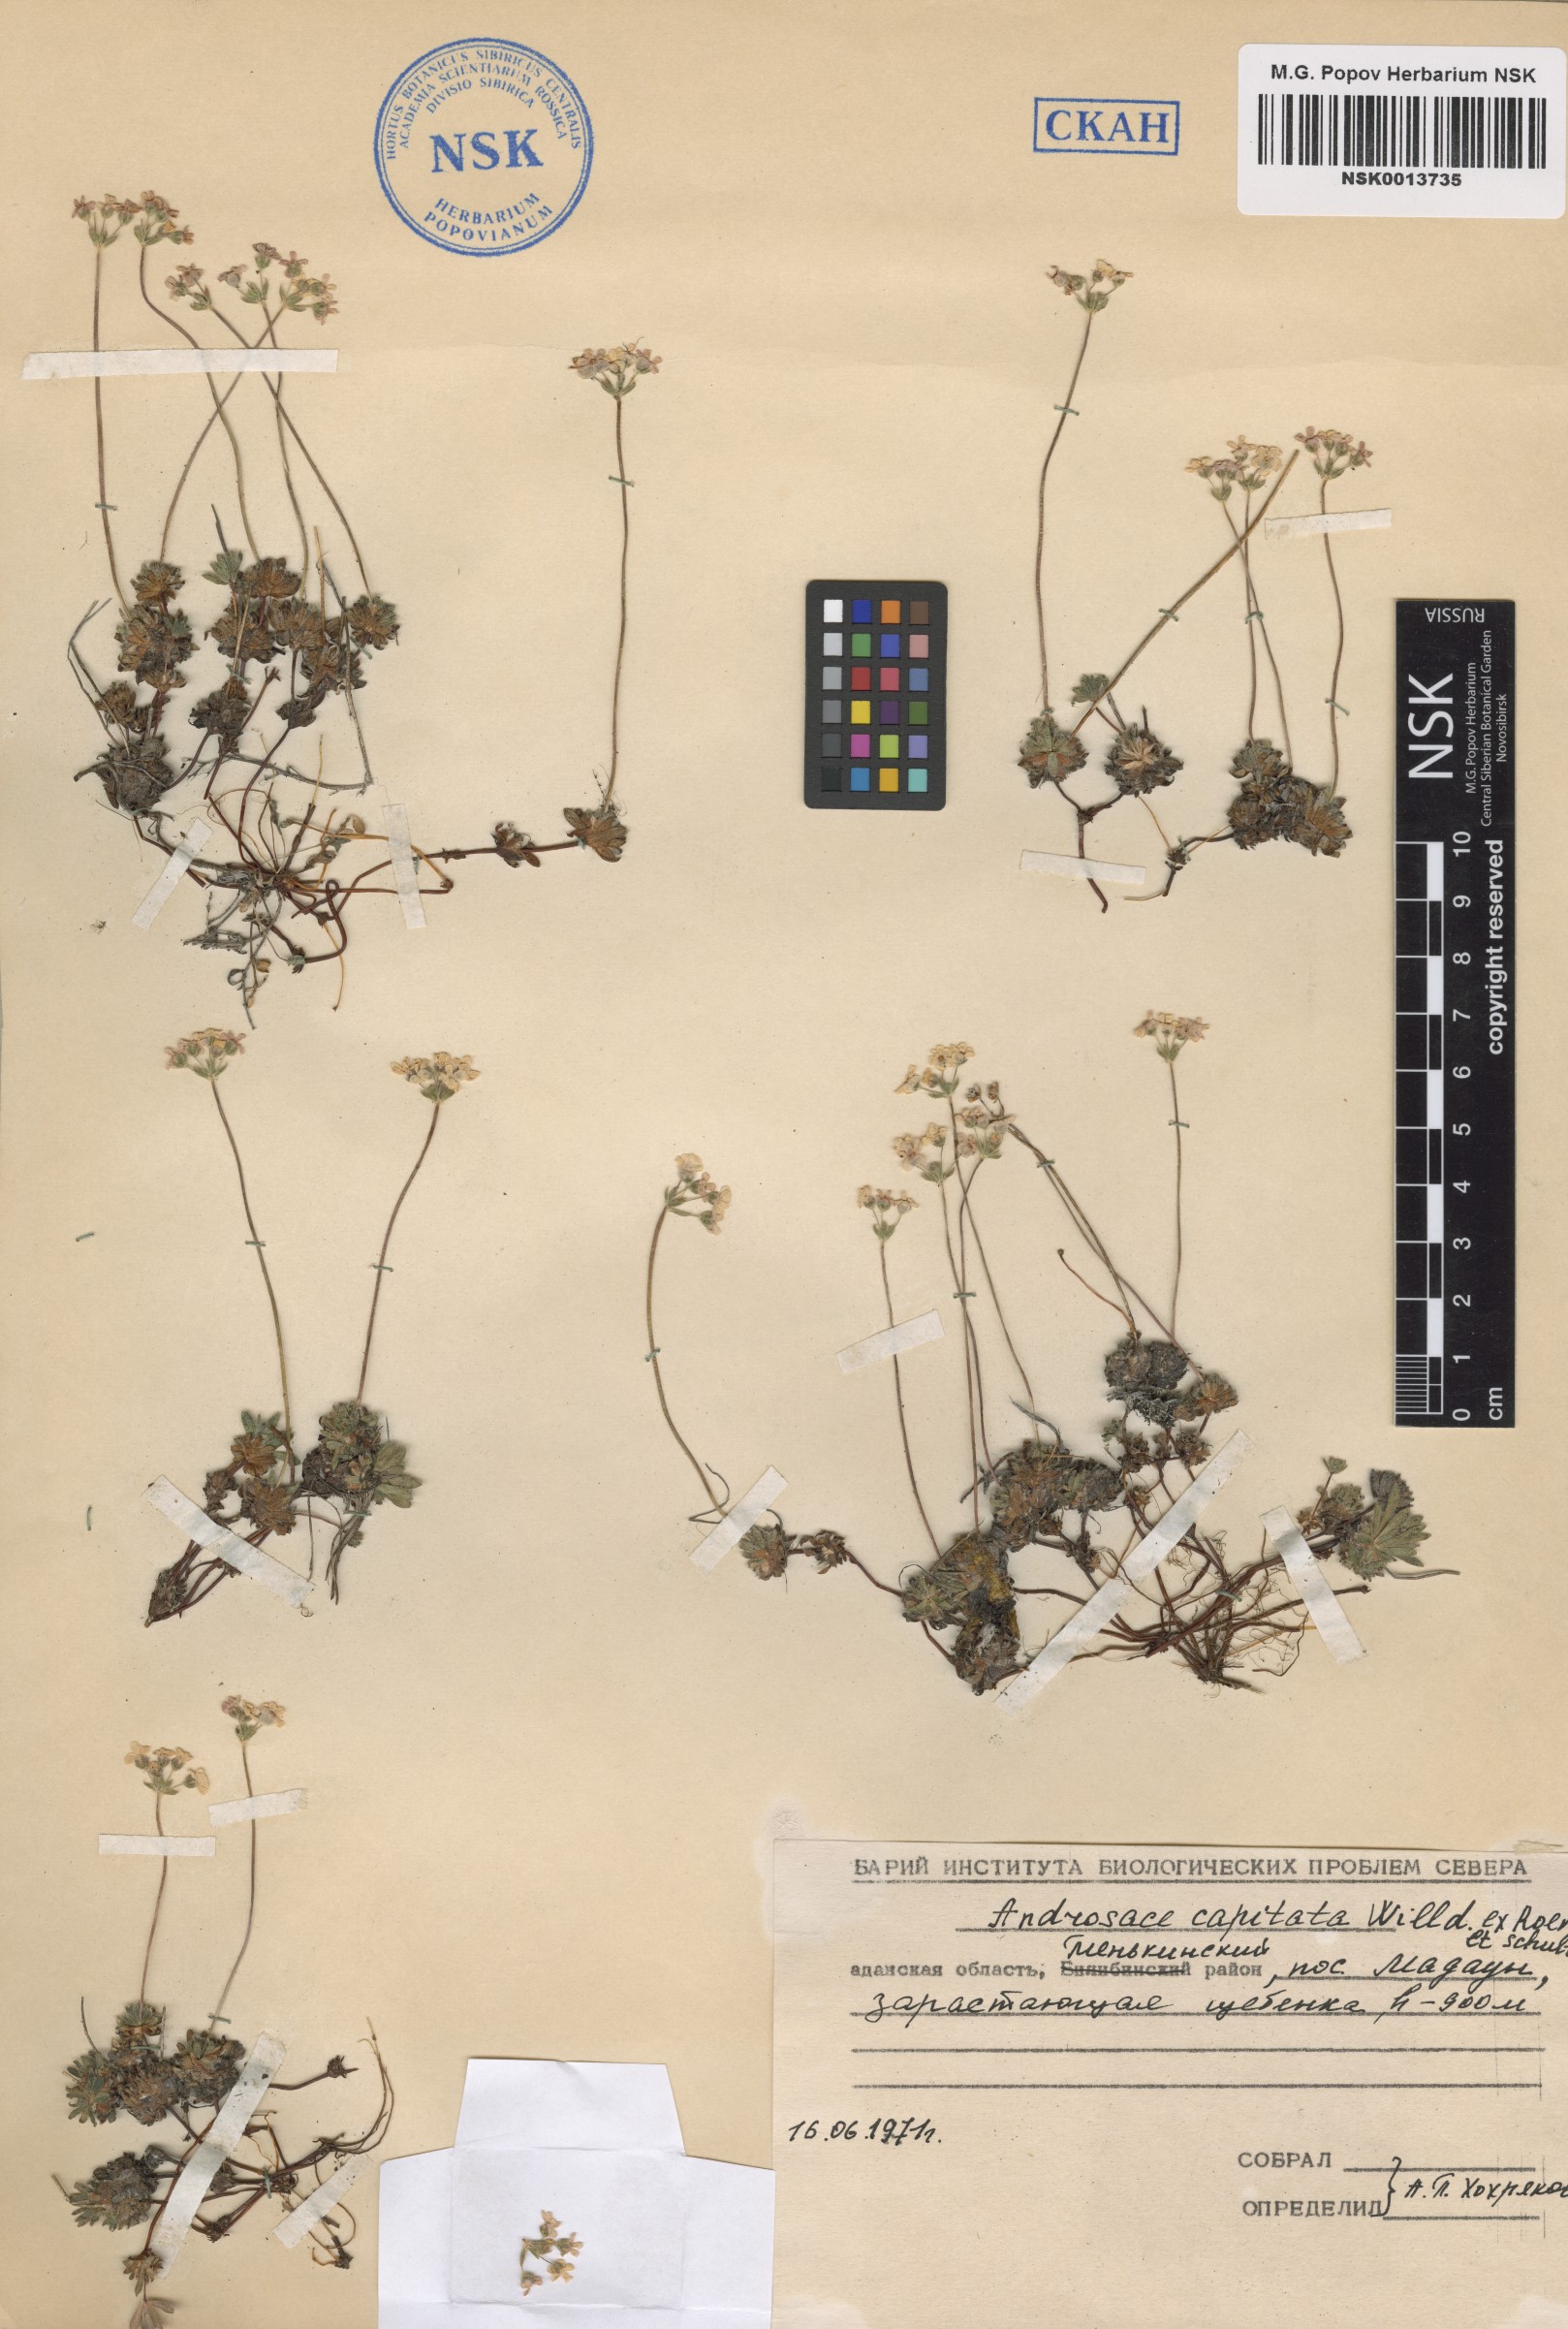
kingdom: Plantae
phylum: Tracheophyta
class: Magnoliopsida
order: Ericales
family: Primulaceae
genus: Androsace
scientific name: Androsace chamaejasme
